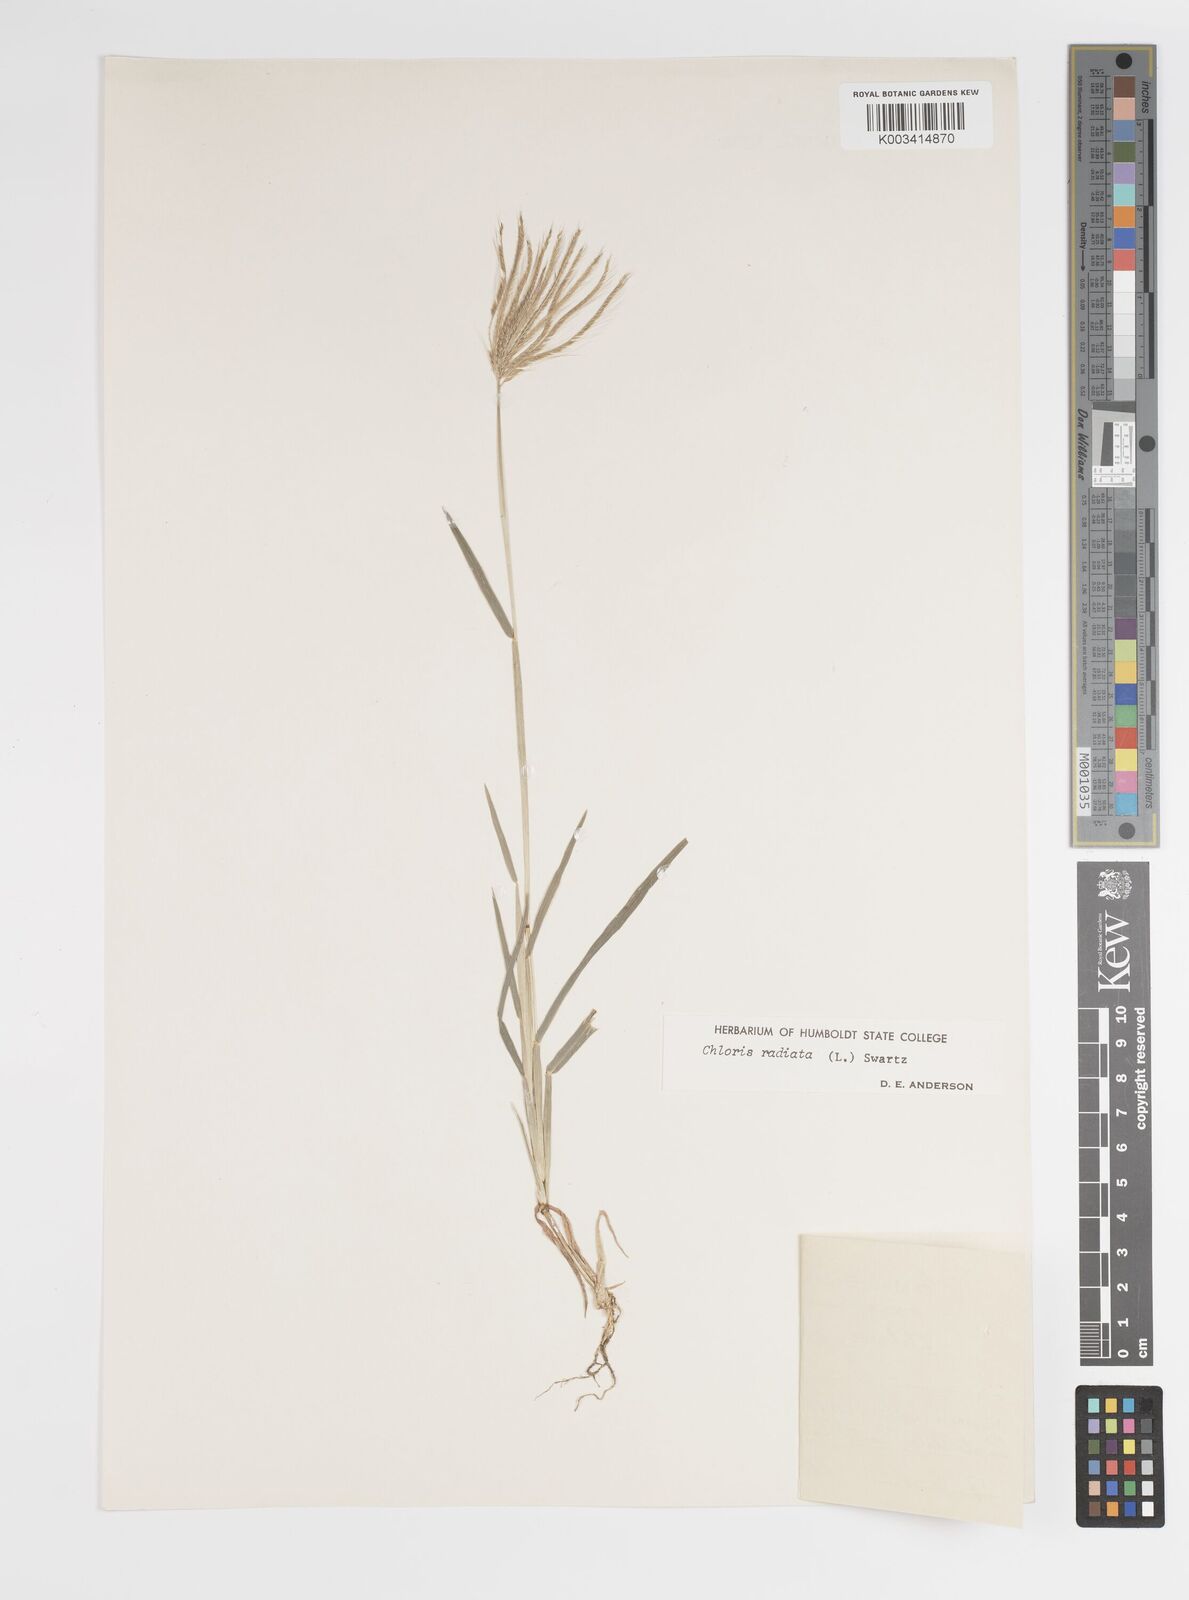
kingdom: Plantae
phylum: Tracheophyta
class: Liliopsida
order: Poales
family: Poaceae
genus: Chloris
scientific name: Chloris radiata
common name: Radiate fingergrass
